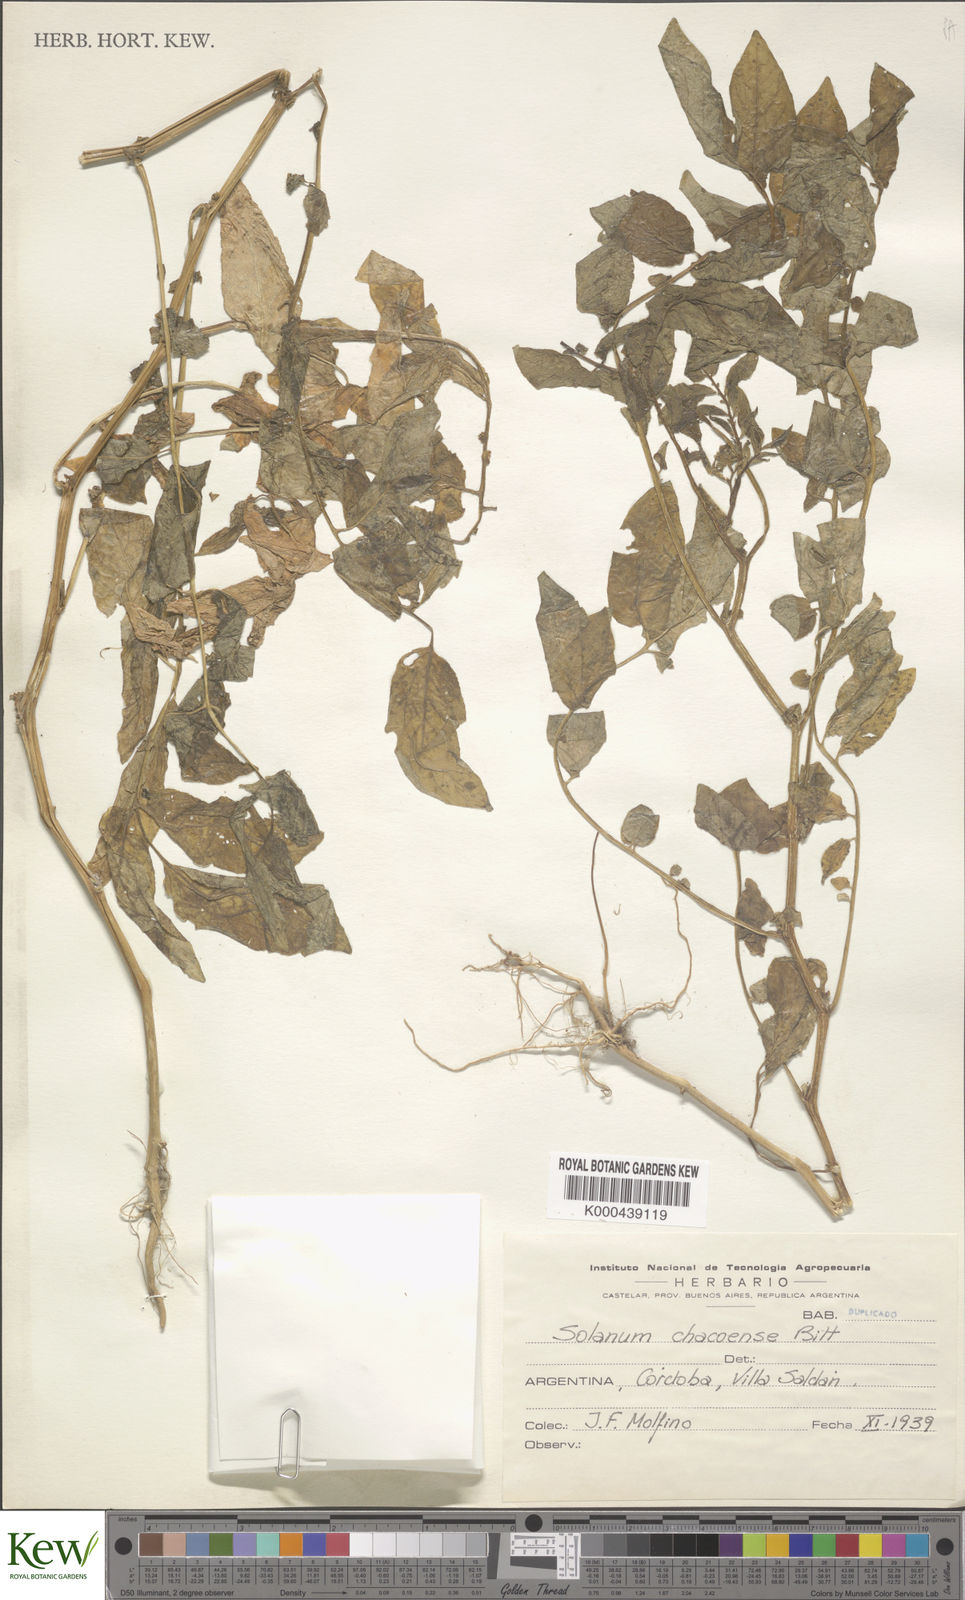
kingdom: Plantae
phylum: Tracheophyta
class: Magnoliopsida
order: Solanales
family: Solanaceae
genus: Solanum
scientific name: Solanum chacoense
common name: Chaco potato
